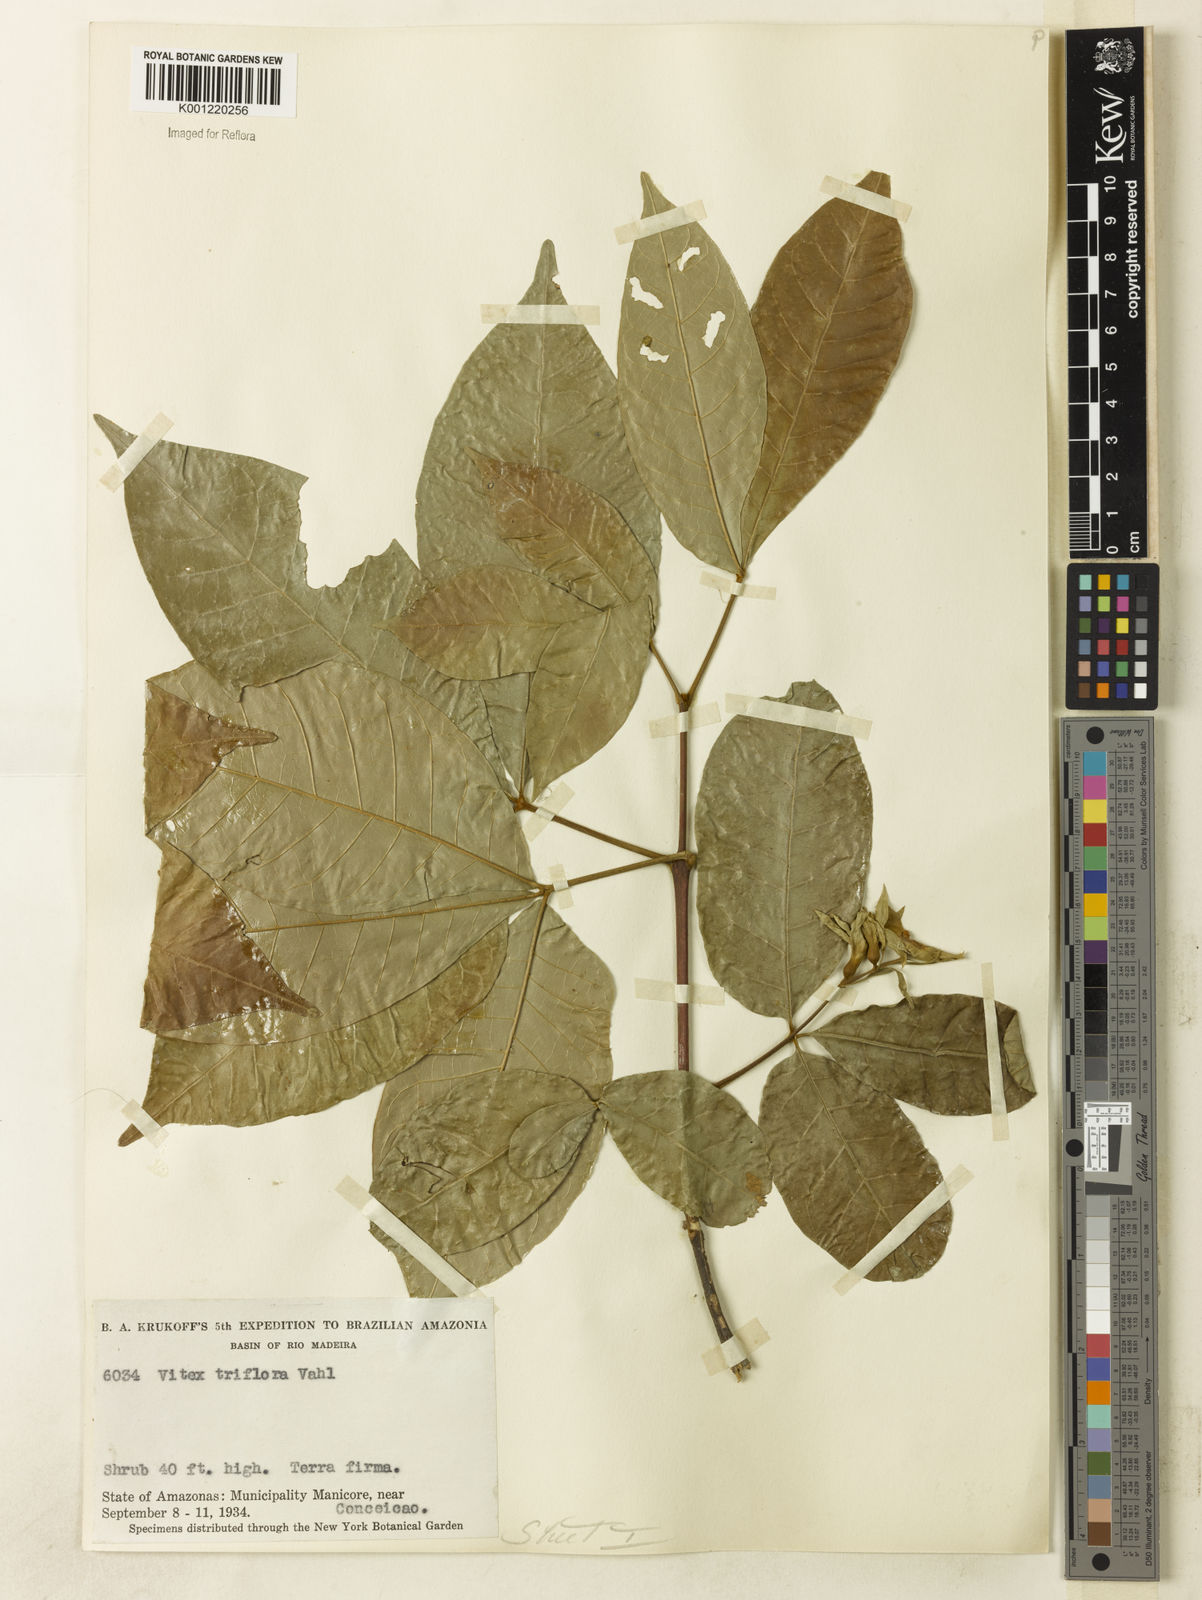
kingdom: Plantae
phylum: Tracheophyta
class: Magnoliopsida
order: Lamiales
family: Lamiaceae
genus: Vitex
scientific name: Vitex triflora
